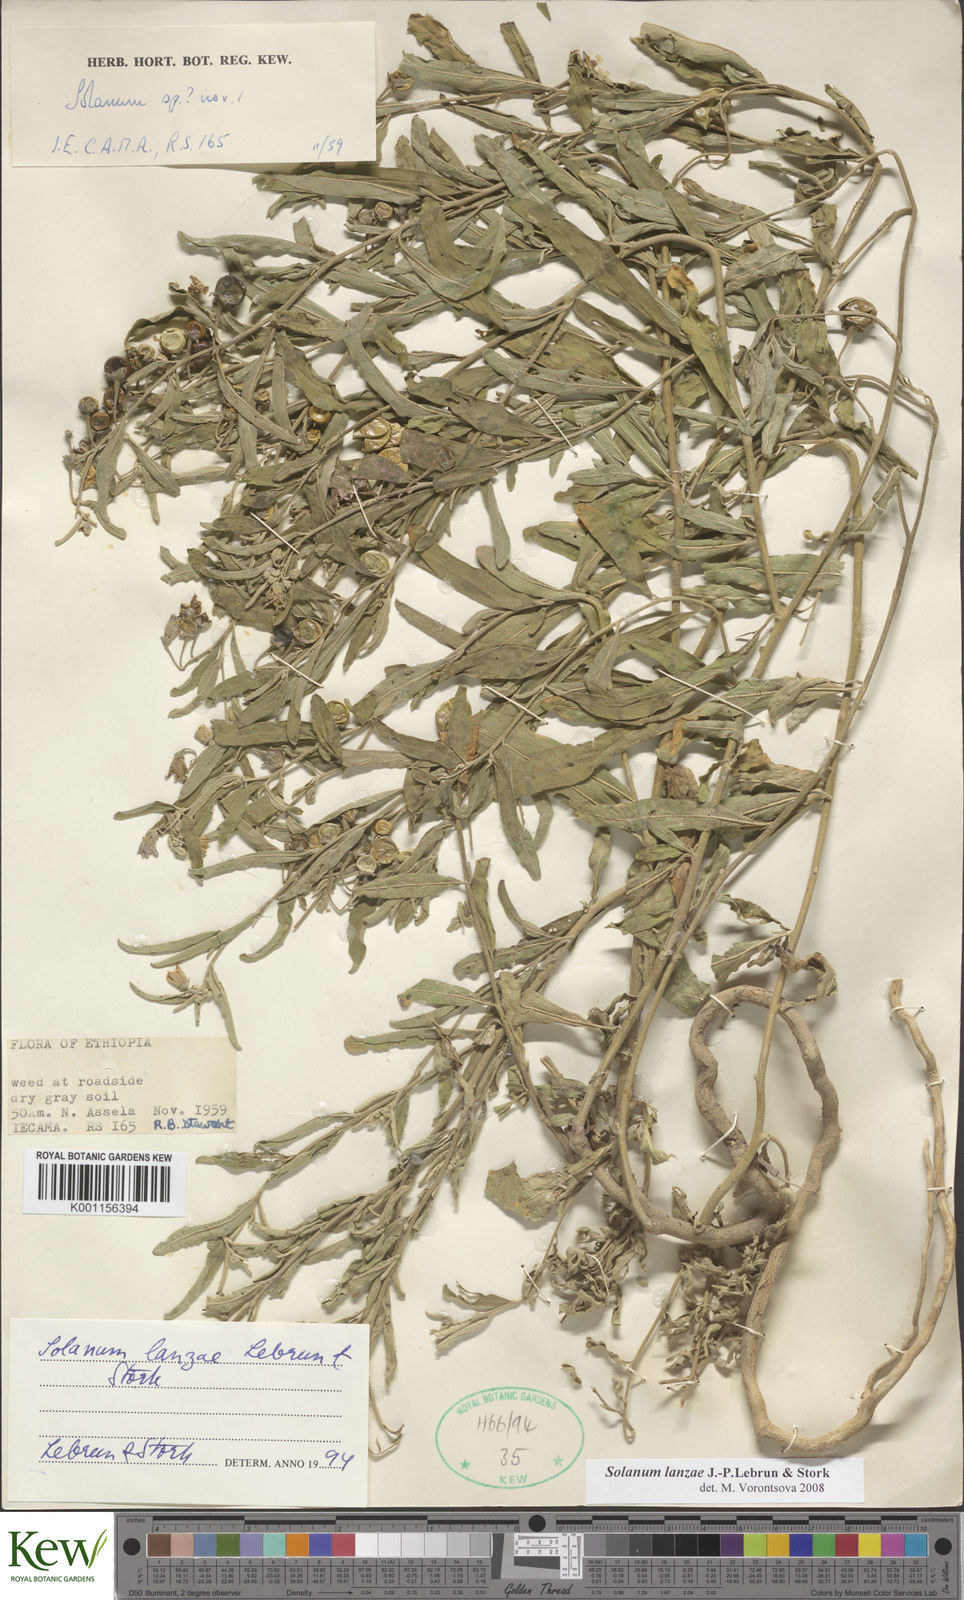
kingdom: Plantae
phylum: Tracheophyta
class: Magnoliopsida
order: Solanales
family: Solanaceae
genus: Solanum
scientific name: Solanum lanzae
